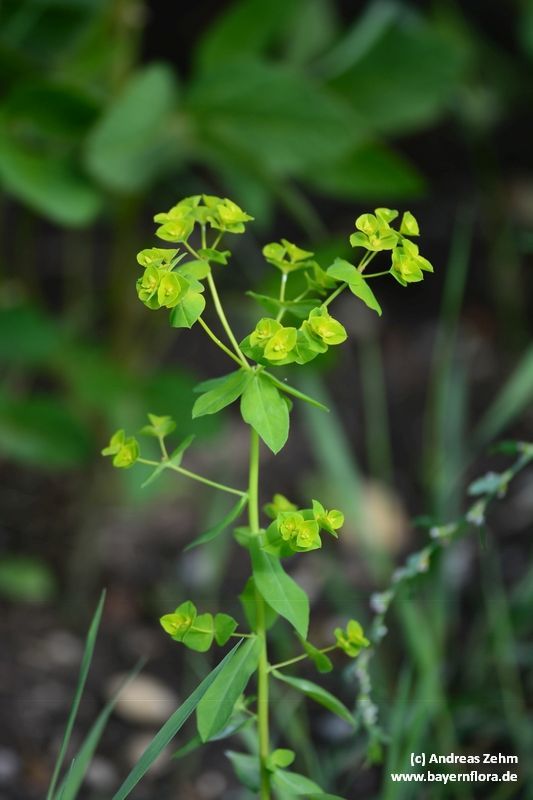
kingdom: Plantae
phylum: Tracheophyta
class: Magnoliopsida
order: Malpighiales
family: Euphorbiaceae
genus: Euphorbia
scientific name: Euphorbia platyphyllos
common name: Broad-leaved spurge
